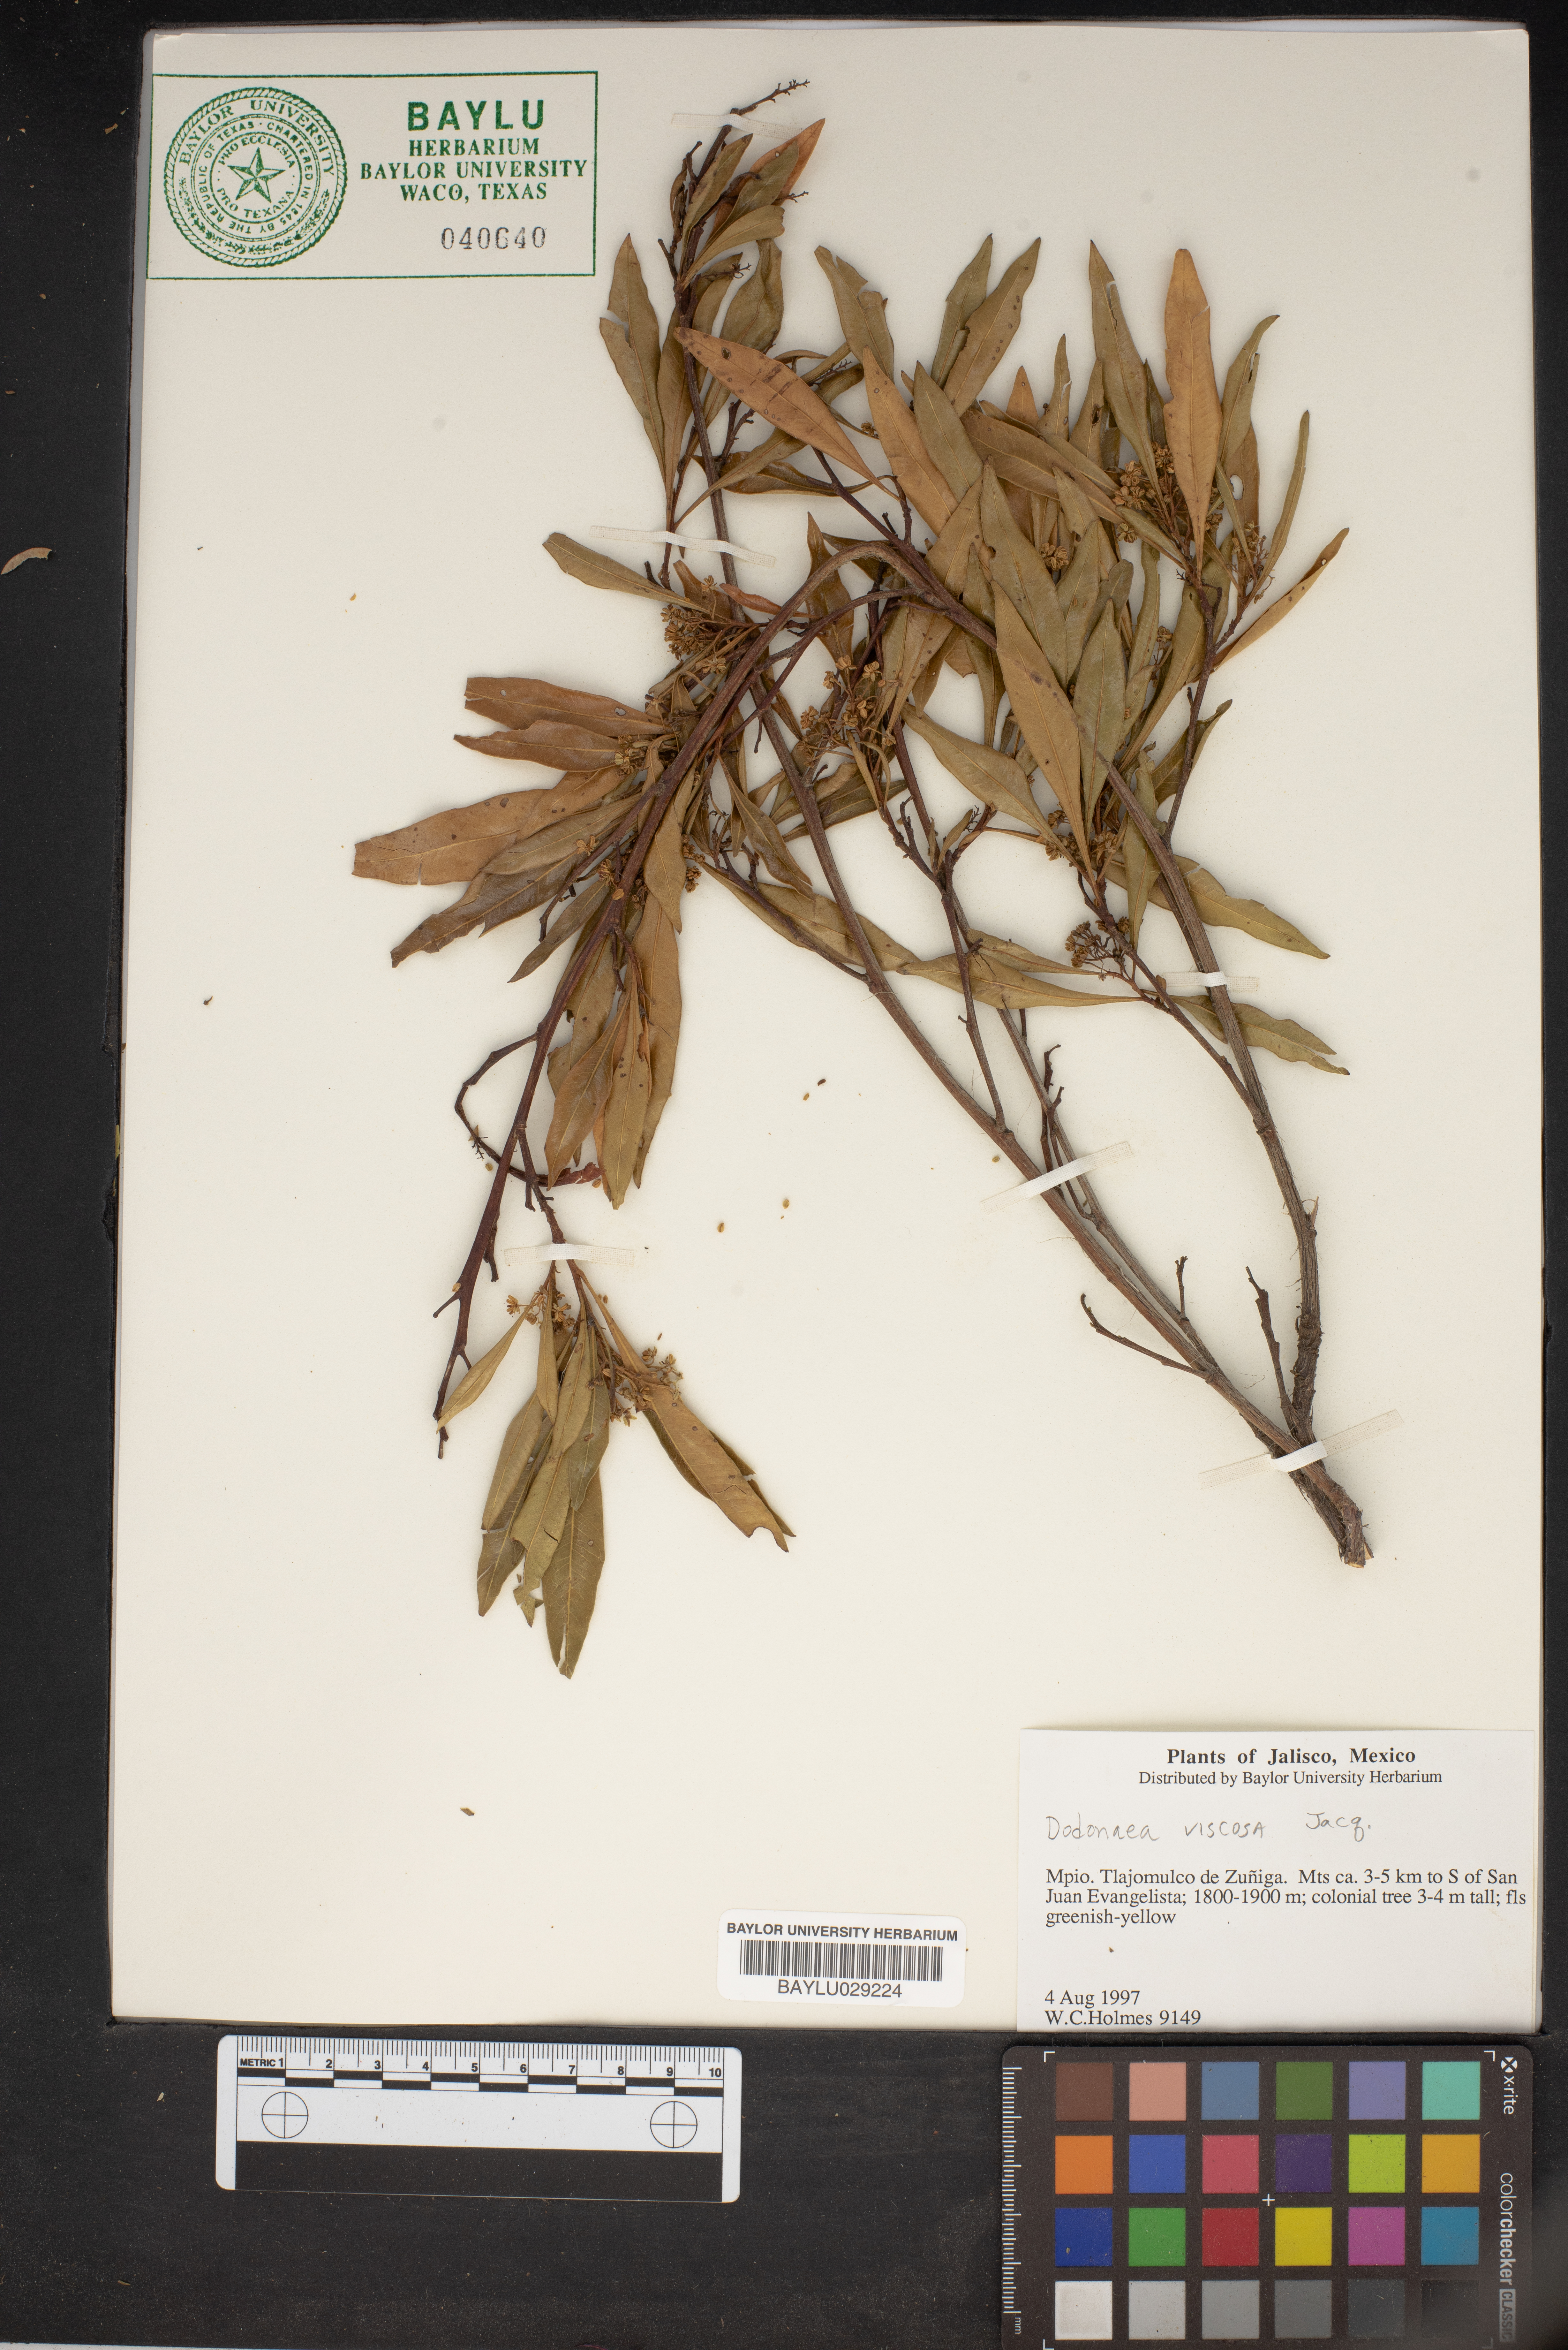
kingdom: Plantae
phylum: Tracheophyta
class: Magnoliopsida
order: Sapindales
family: Sapindaceae
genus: Dodonaea
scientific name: Dodonaea viscosa
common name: Hopbush
